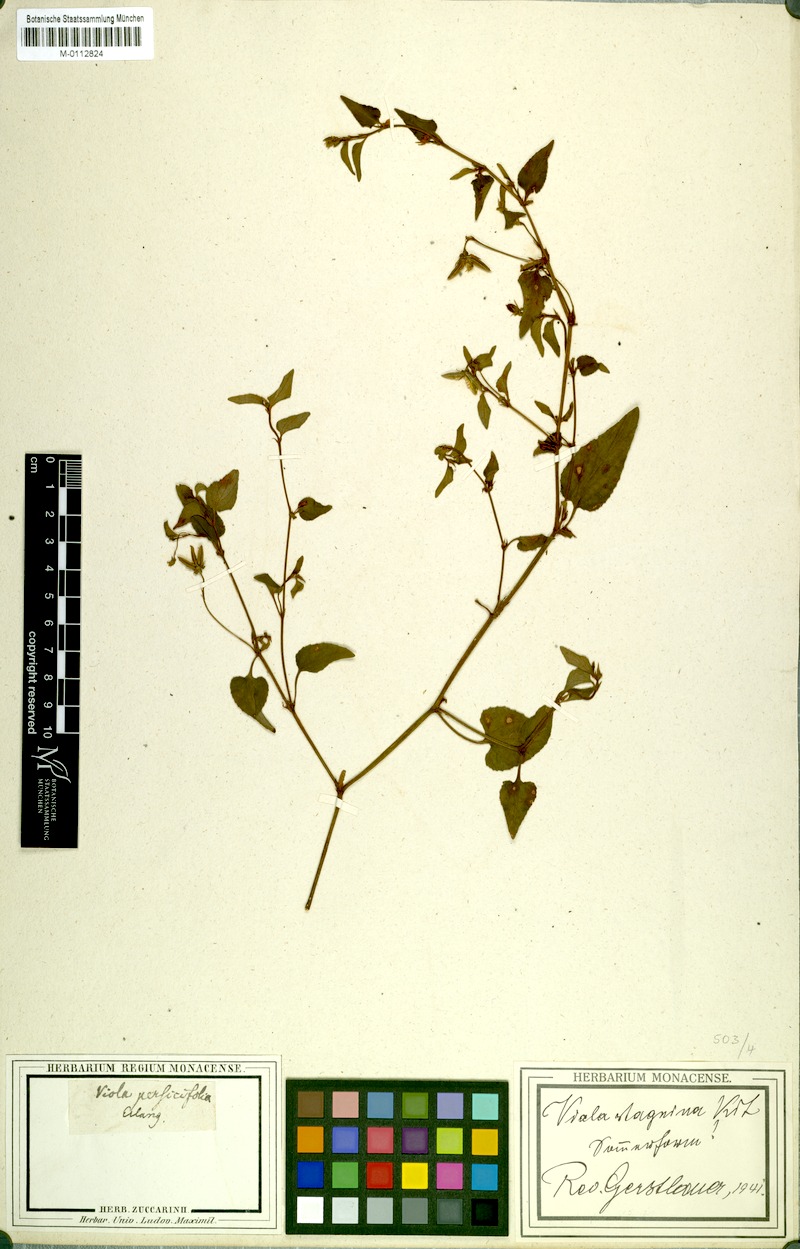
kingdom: Plantae
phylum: Tracheophyta
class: Magnoliopsida
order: Malpighiales
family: Violaceae
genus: Viola
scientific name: Viola stagnina
